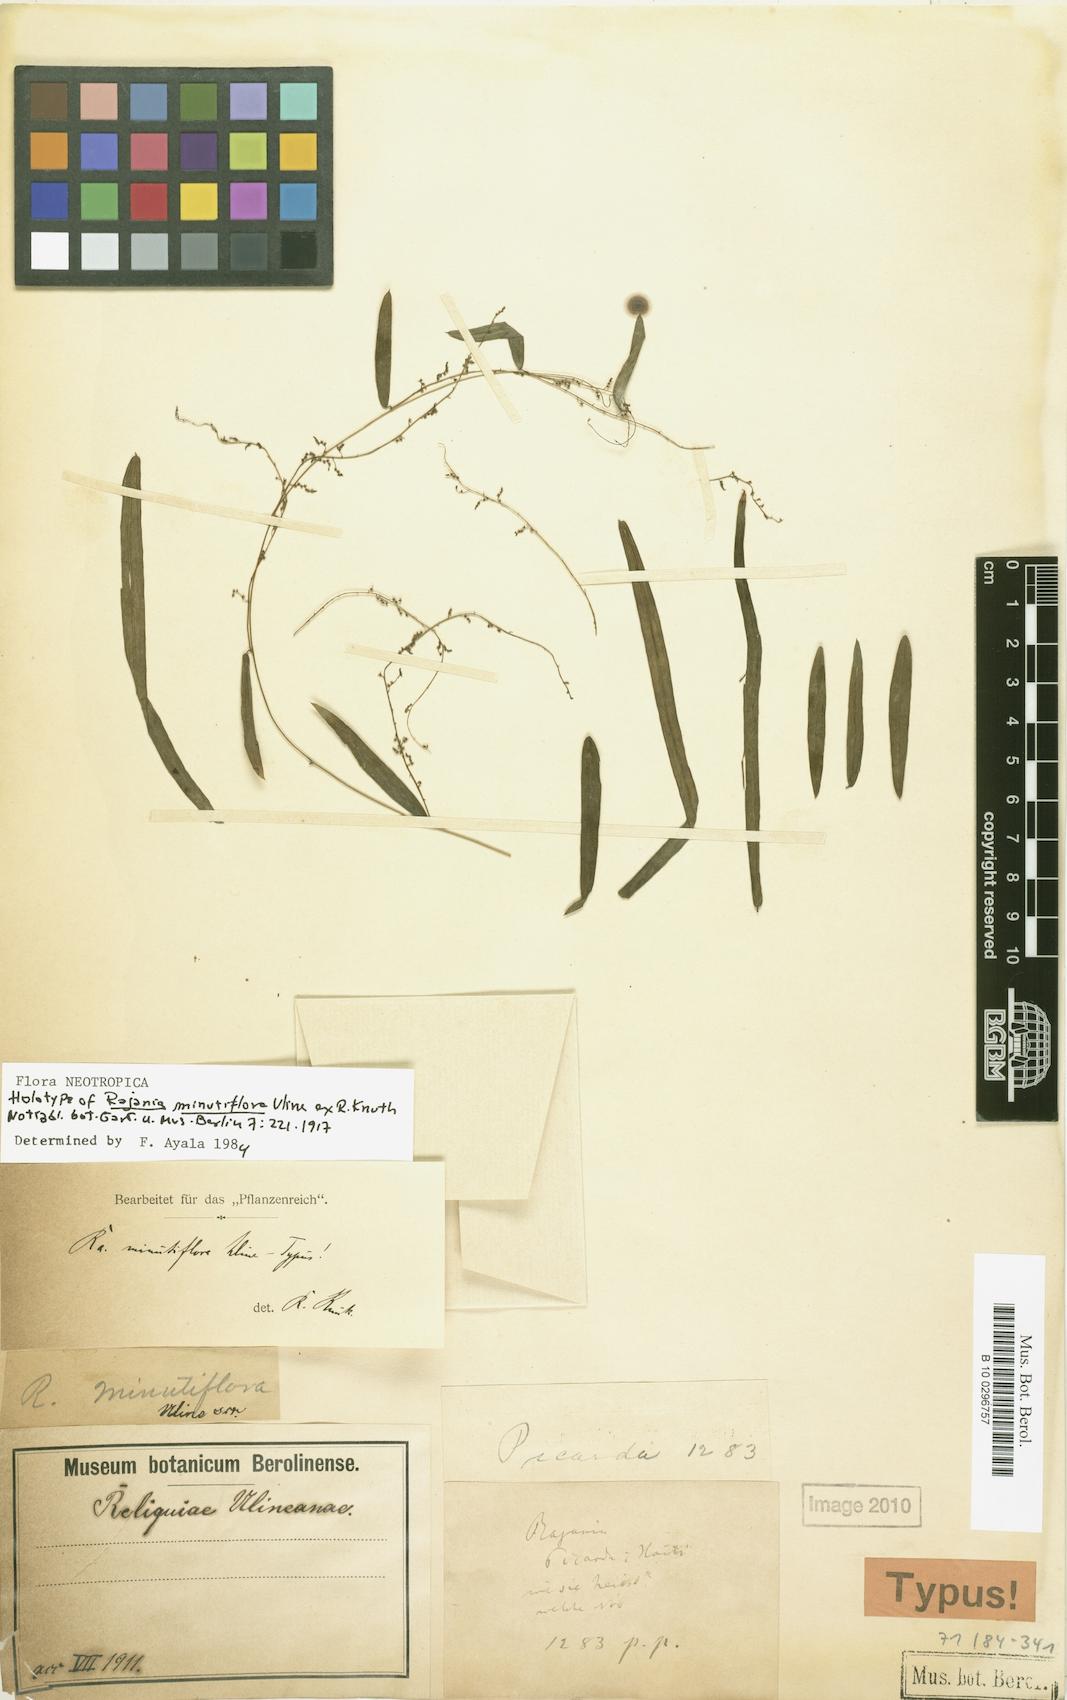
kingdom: Plantae
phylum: Tracheophyta
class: Liliopsida
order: Dioscoreales
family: Dioscoreaceae
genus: Dioscorea
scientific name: Dioscorea microflora
